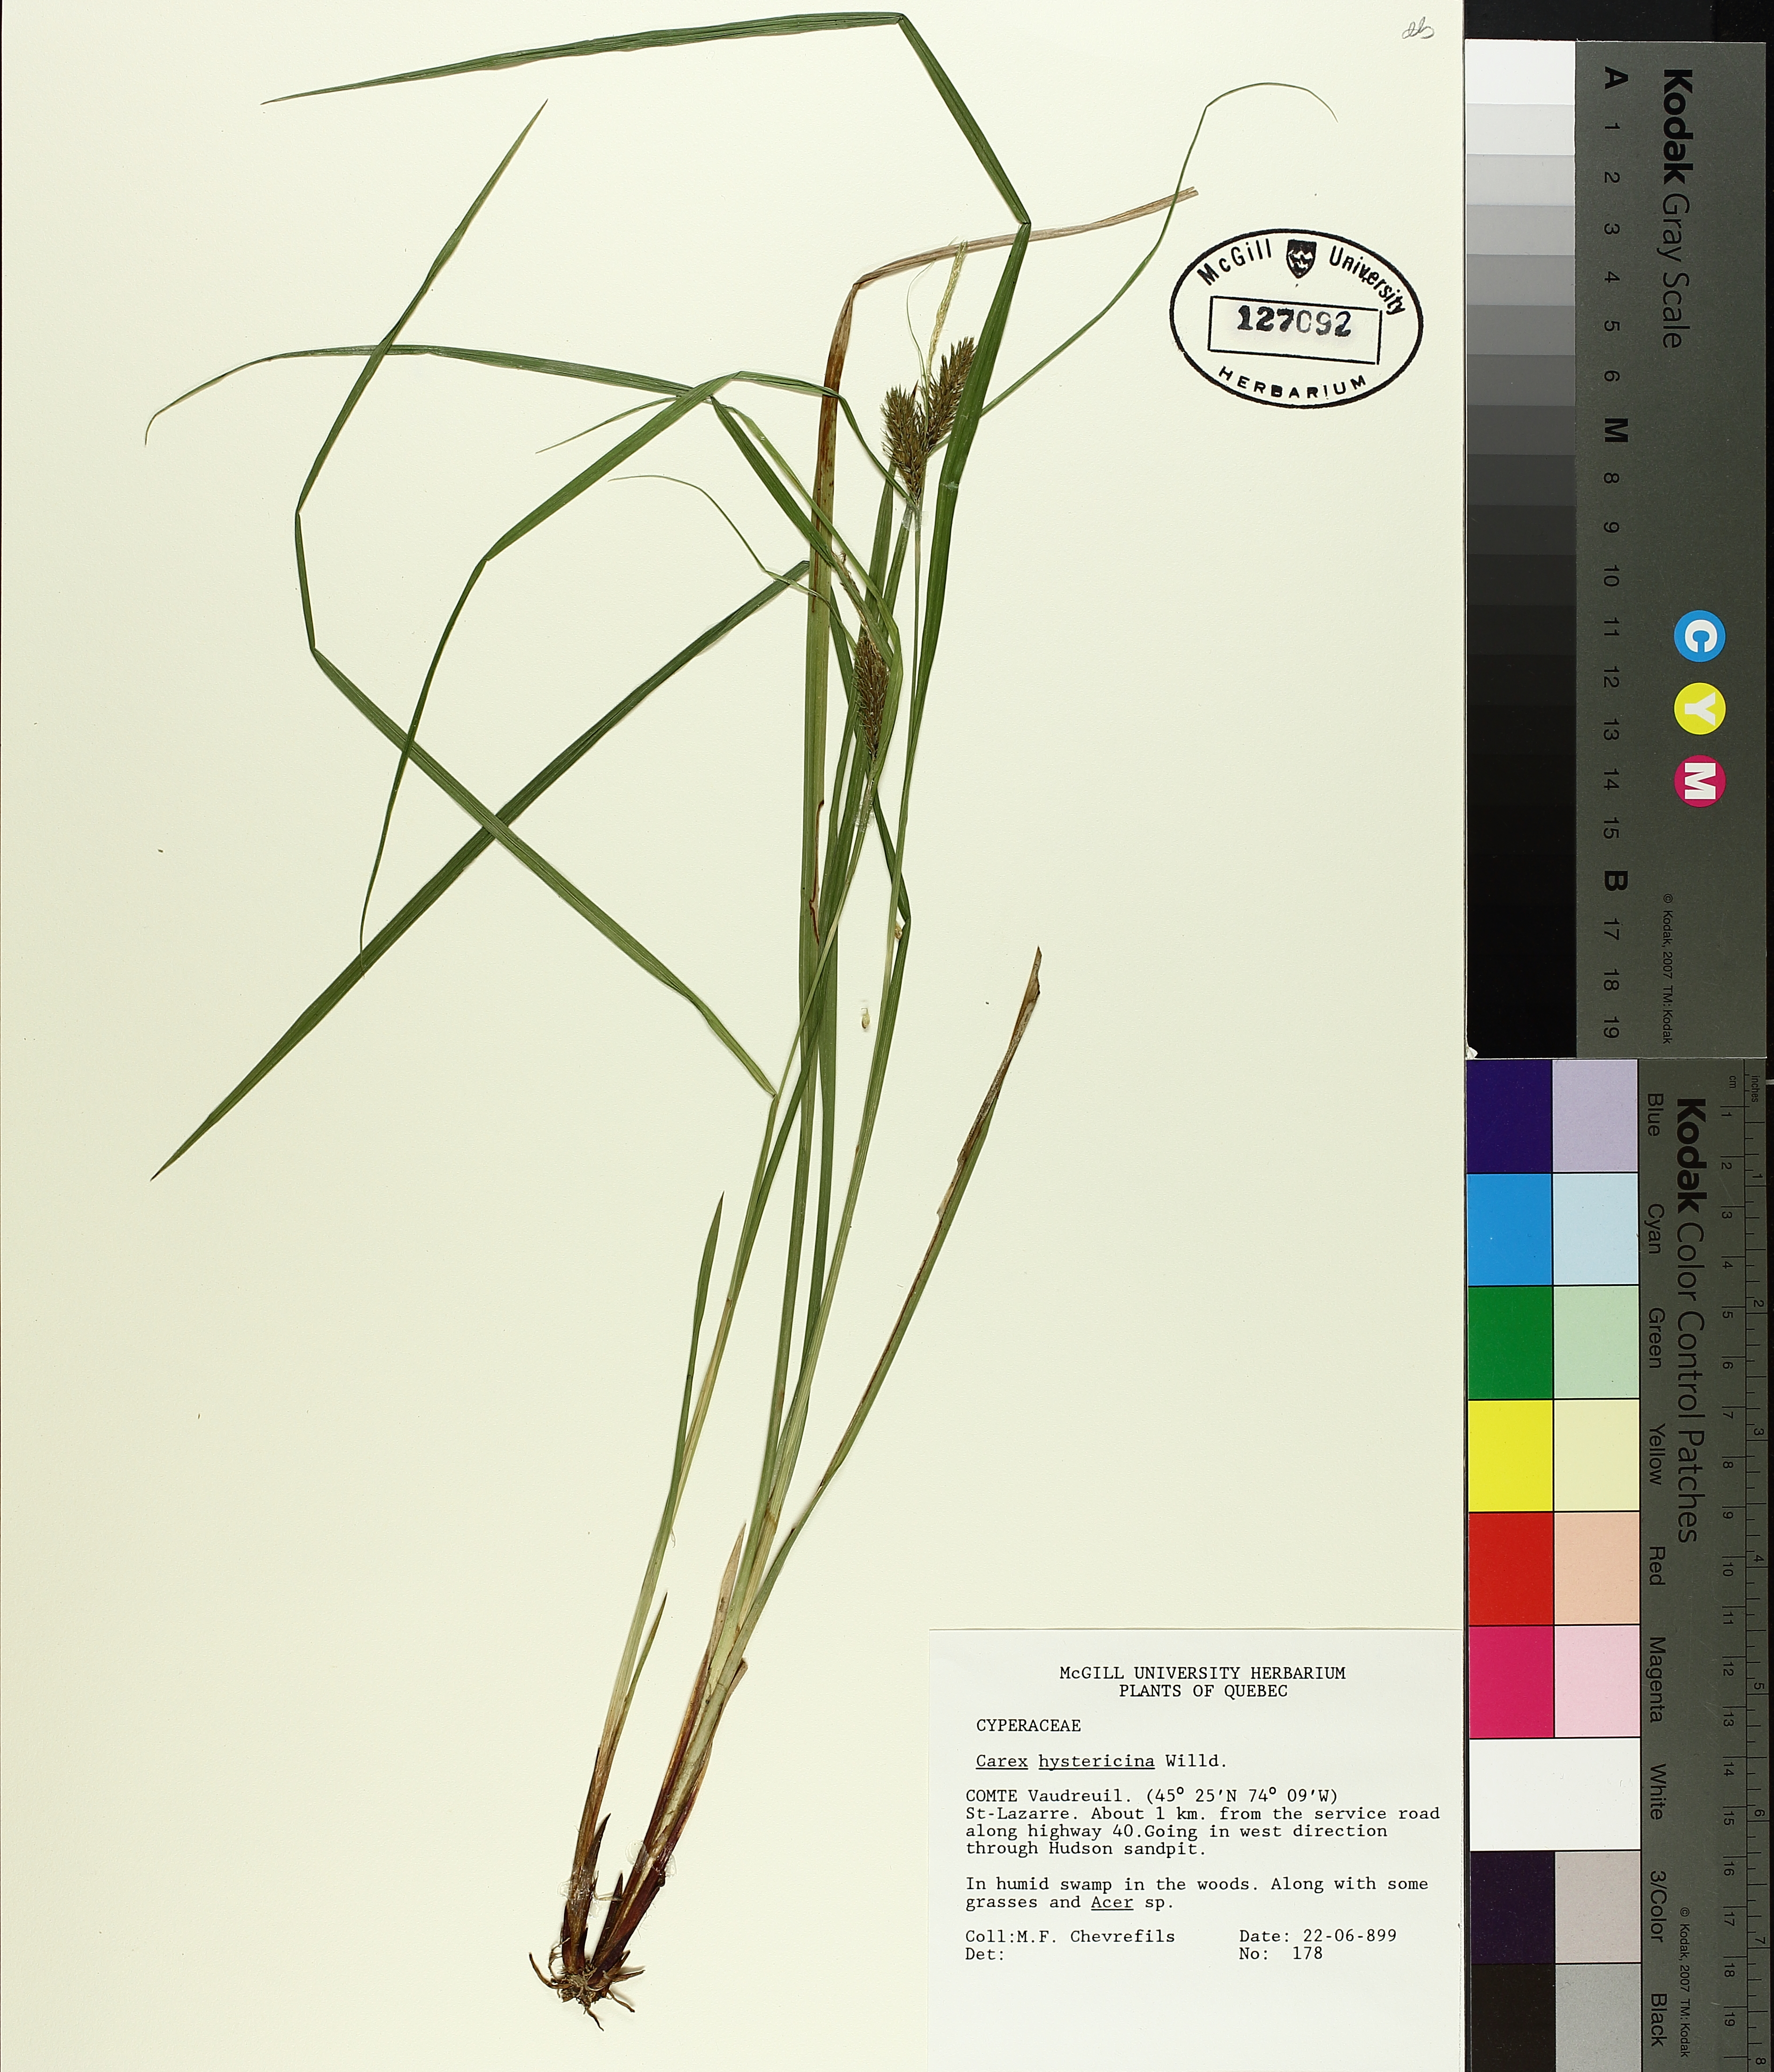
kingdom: Plantae
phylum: Tracheophyta
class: Liliopsida
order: Poales
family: Cyperaceae
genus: Carex
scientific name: Carex hystericina
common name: Bottlebrush sedge
